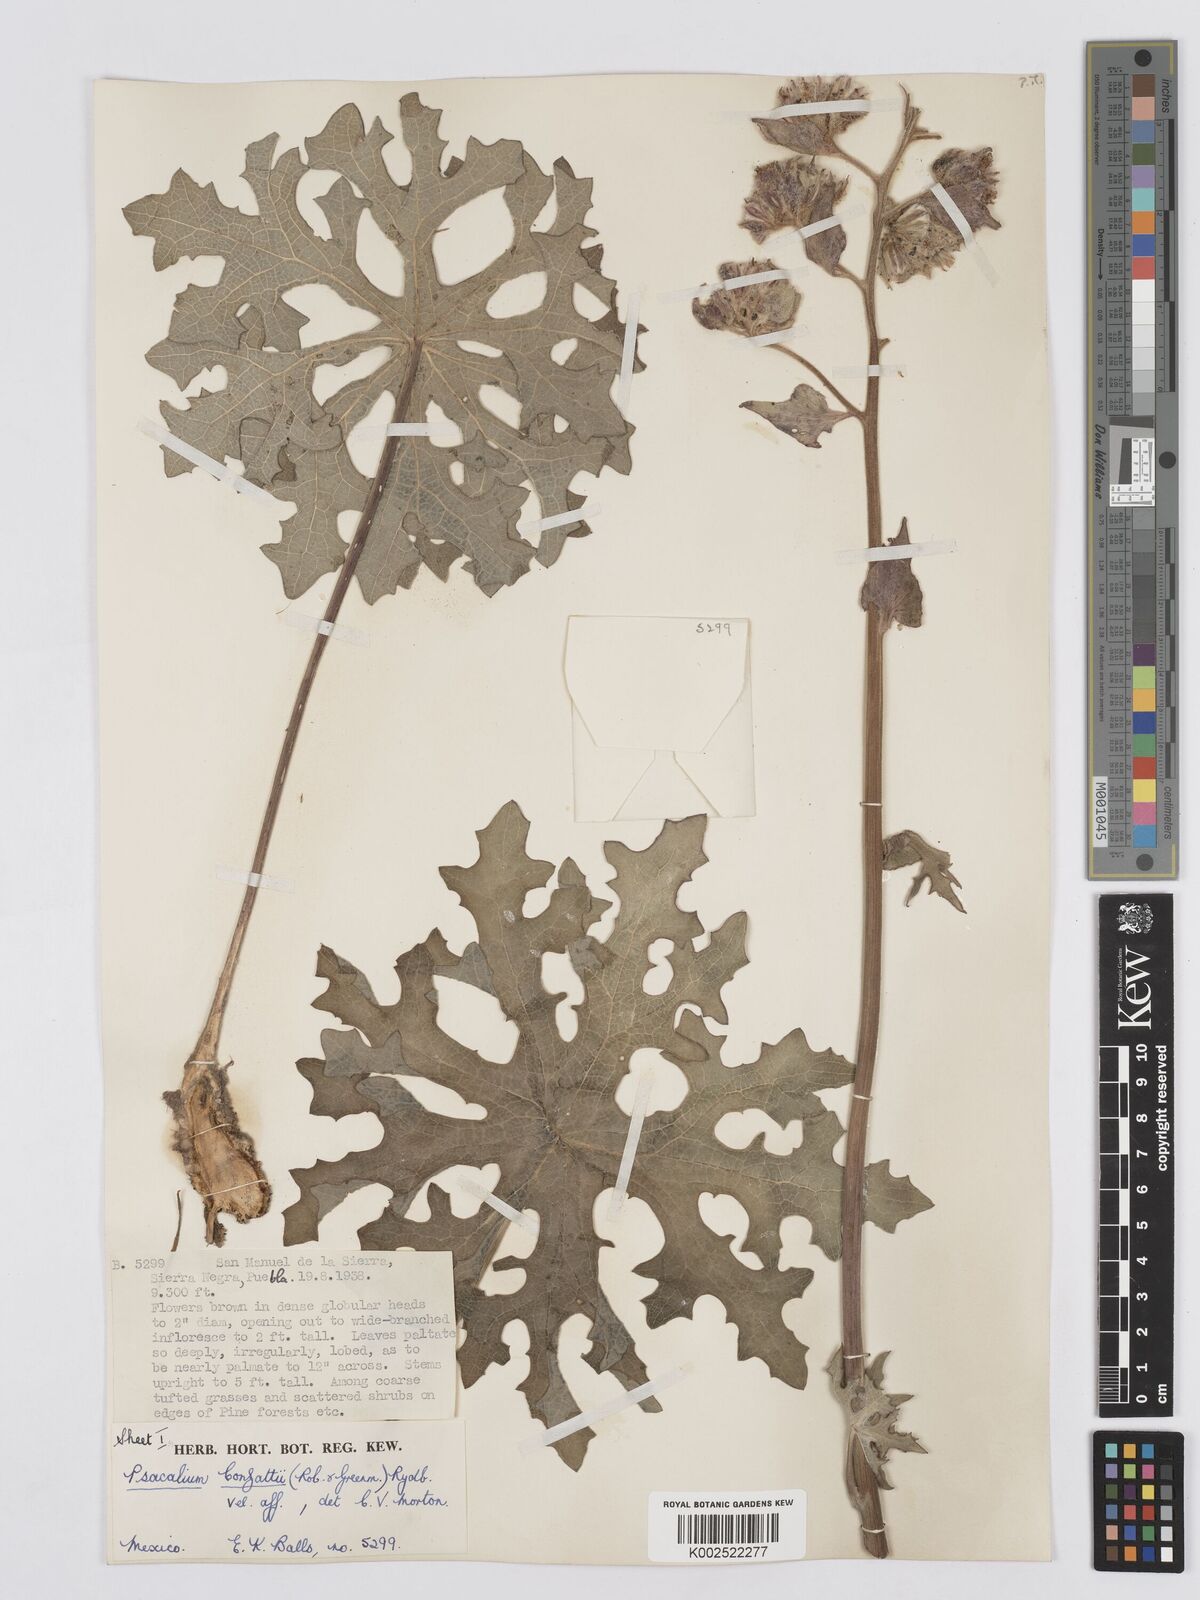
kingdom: Plantae
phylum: Tracheophyta
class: Magnoliopsida
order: Asterales
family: Asteraceae
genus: Psacalium
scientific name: Psacalium peltatum
